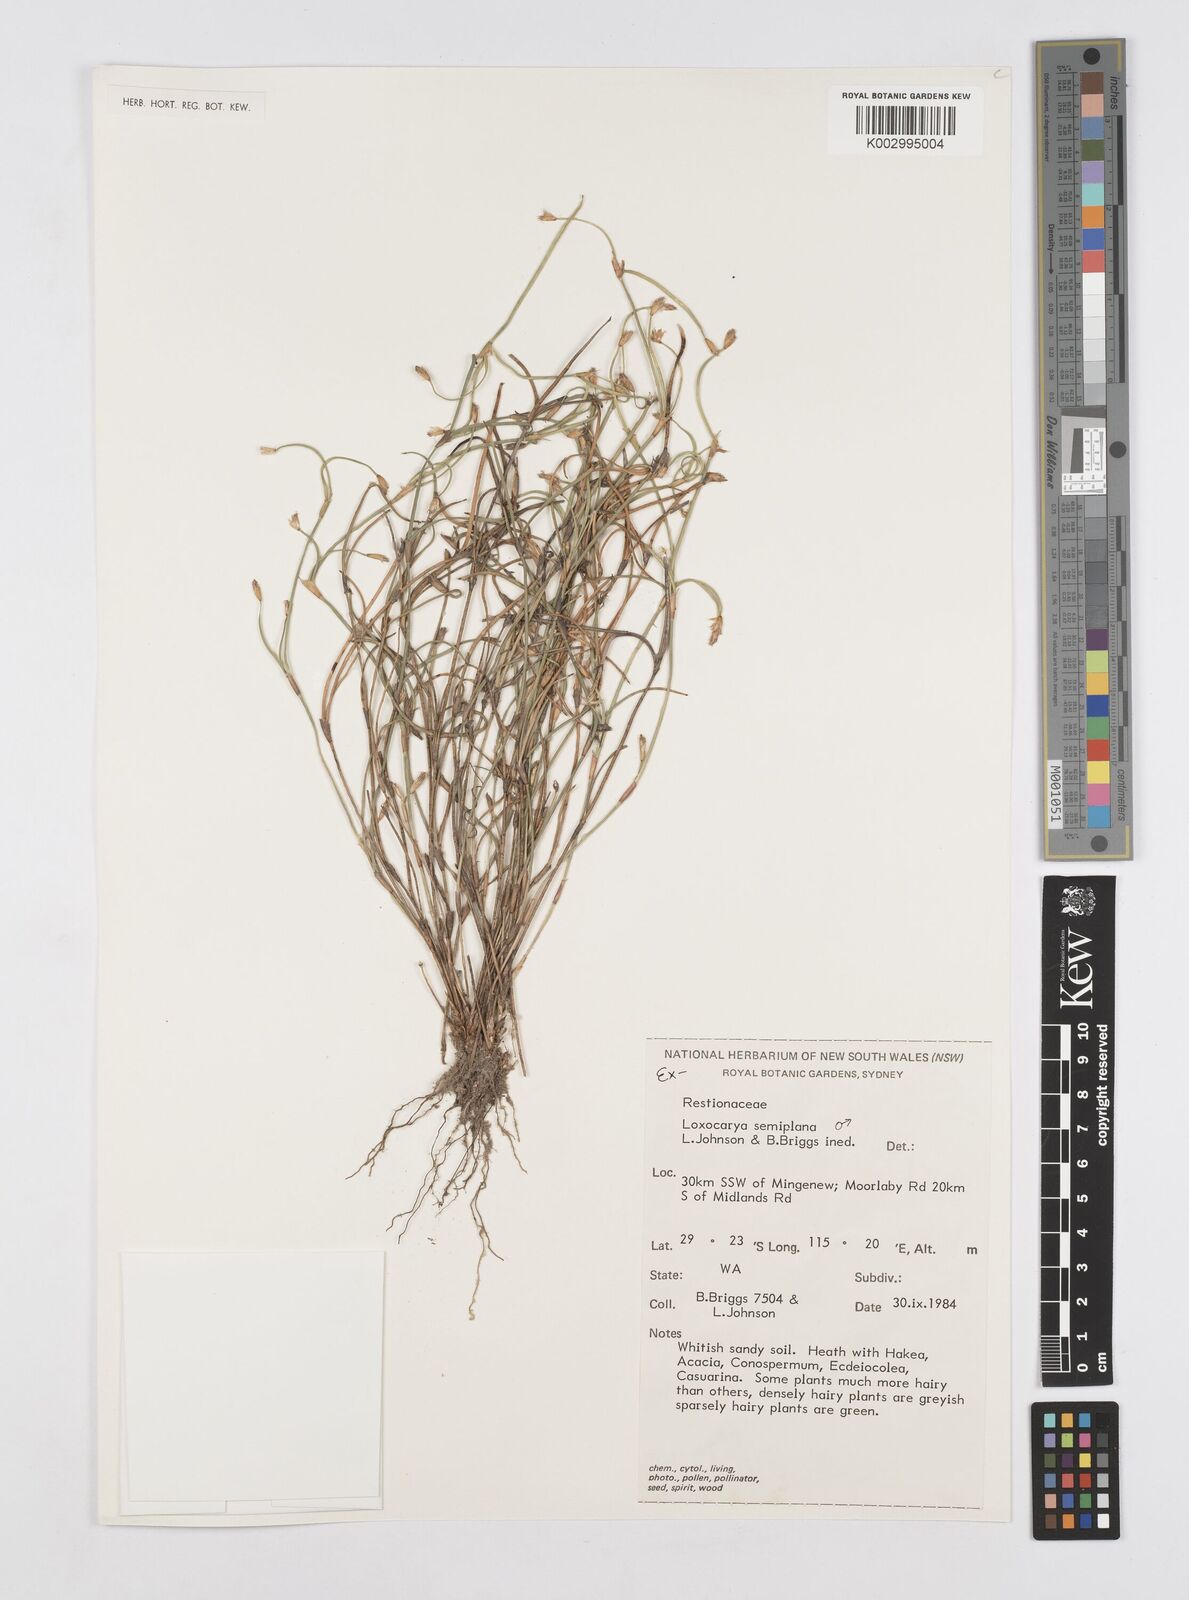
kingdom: Plantae
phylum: Tracheophyta
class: Liliopsida
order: Poales
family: Restionaceae
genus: Desmocladus
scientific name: Desmocladus semiplanus
